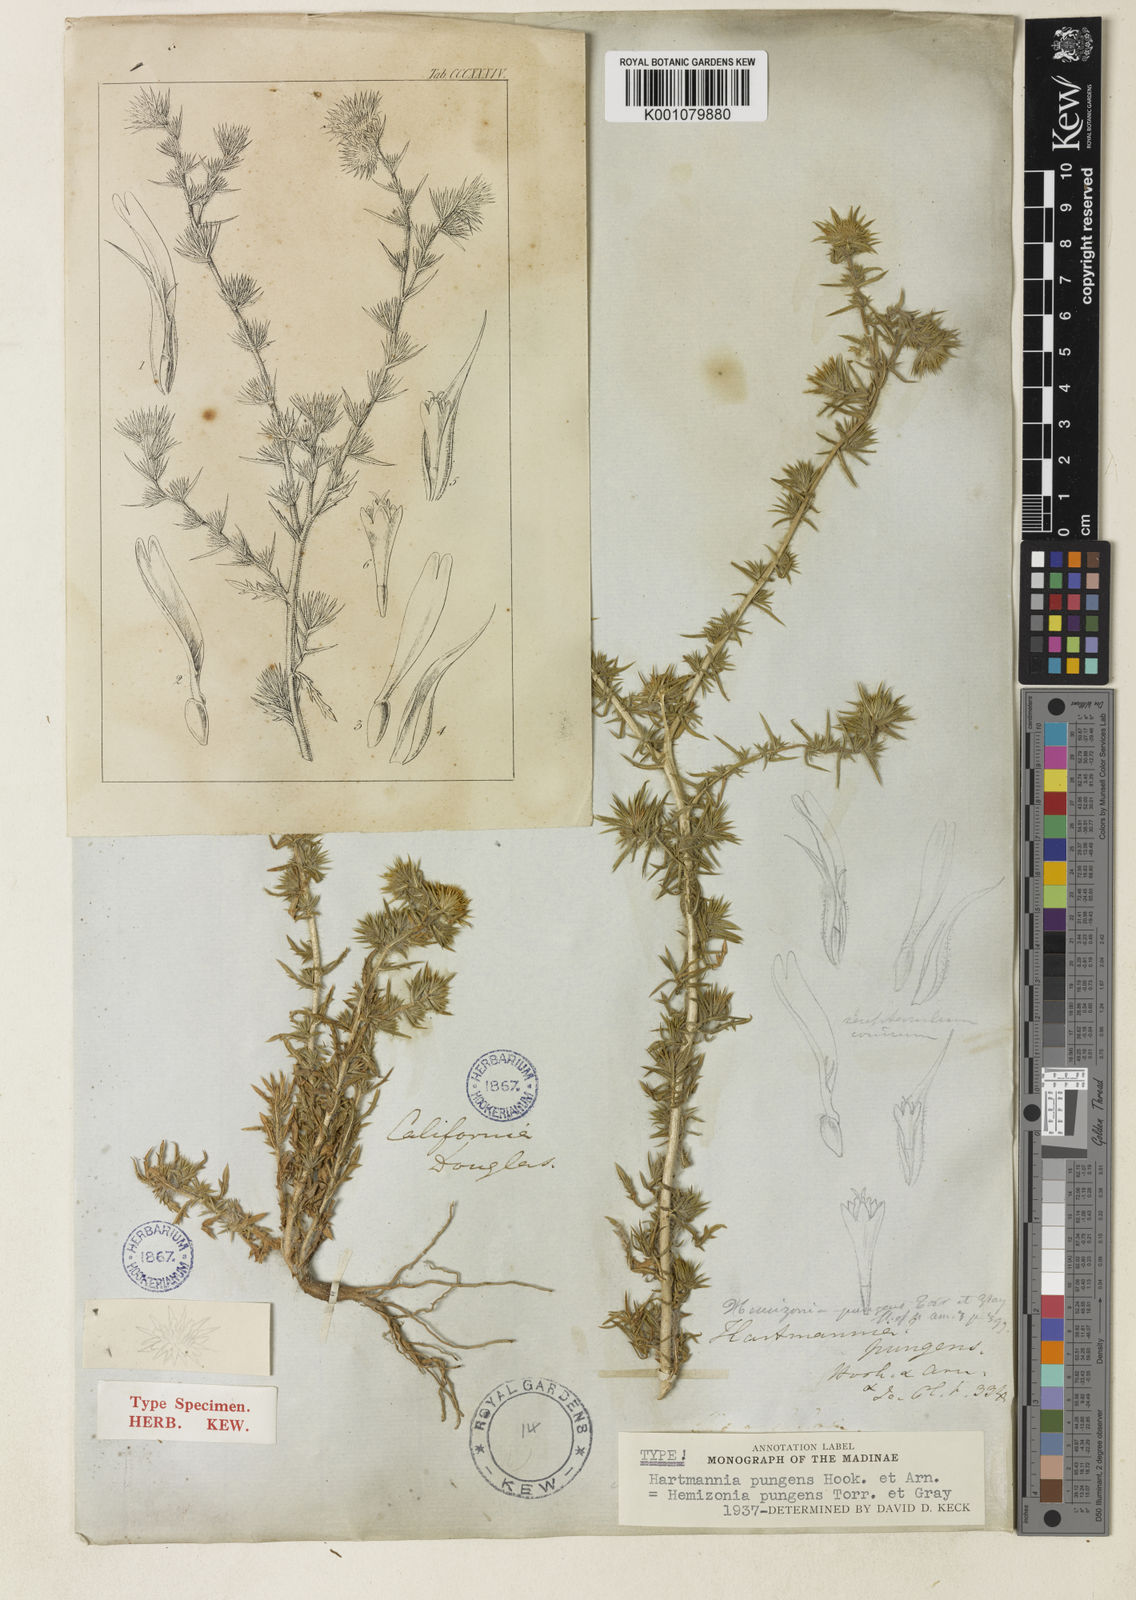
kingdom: Plantae
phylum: Tracheophyta
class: Magnoliopsida
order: Asterales
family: Asteraceae
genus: Centromadia
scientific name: Centromadia pungens
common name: Common spikeweed
